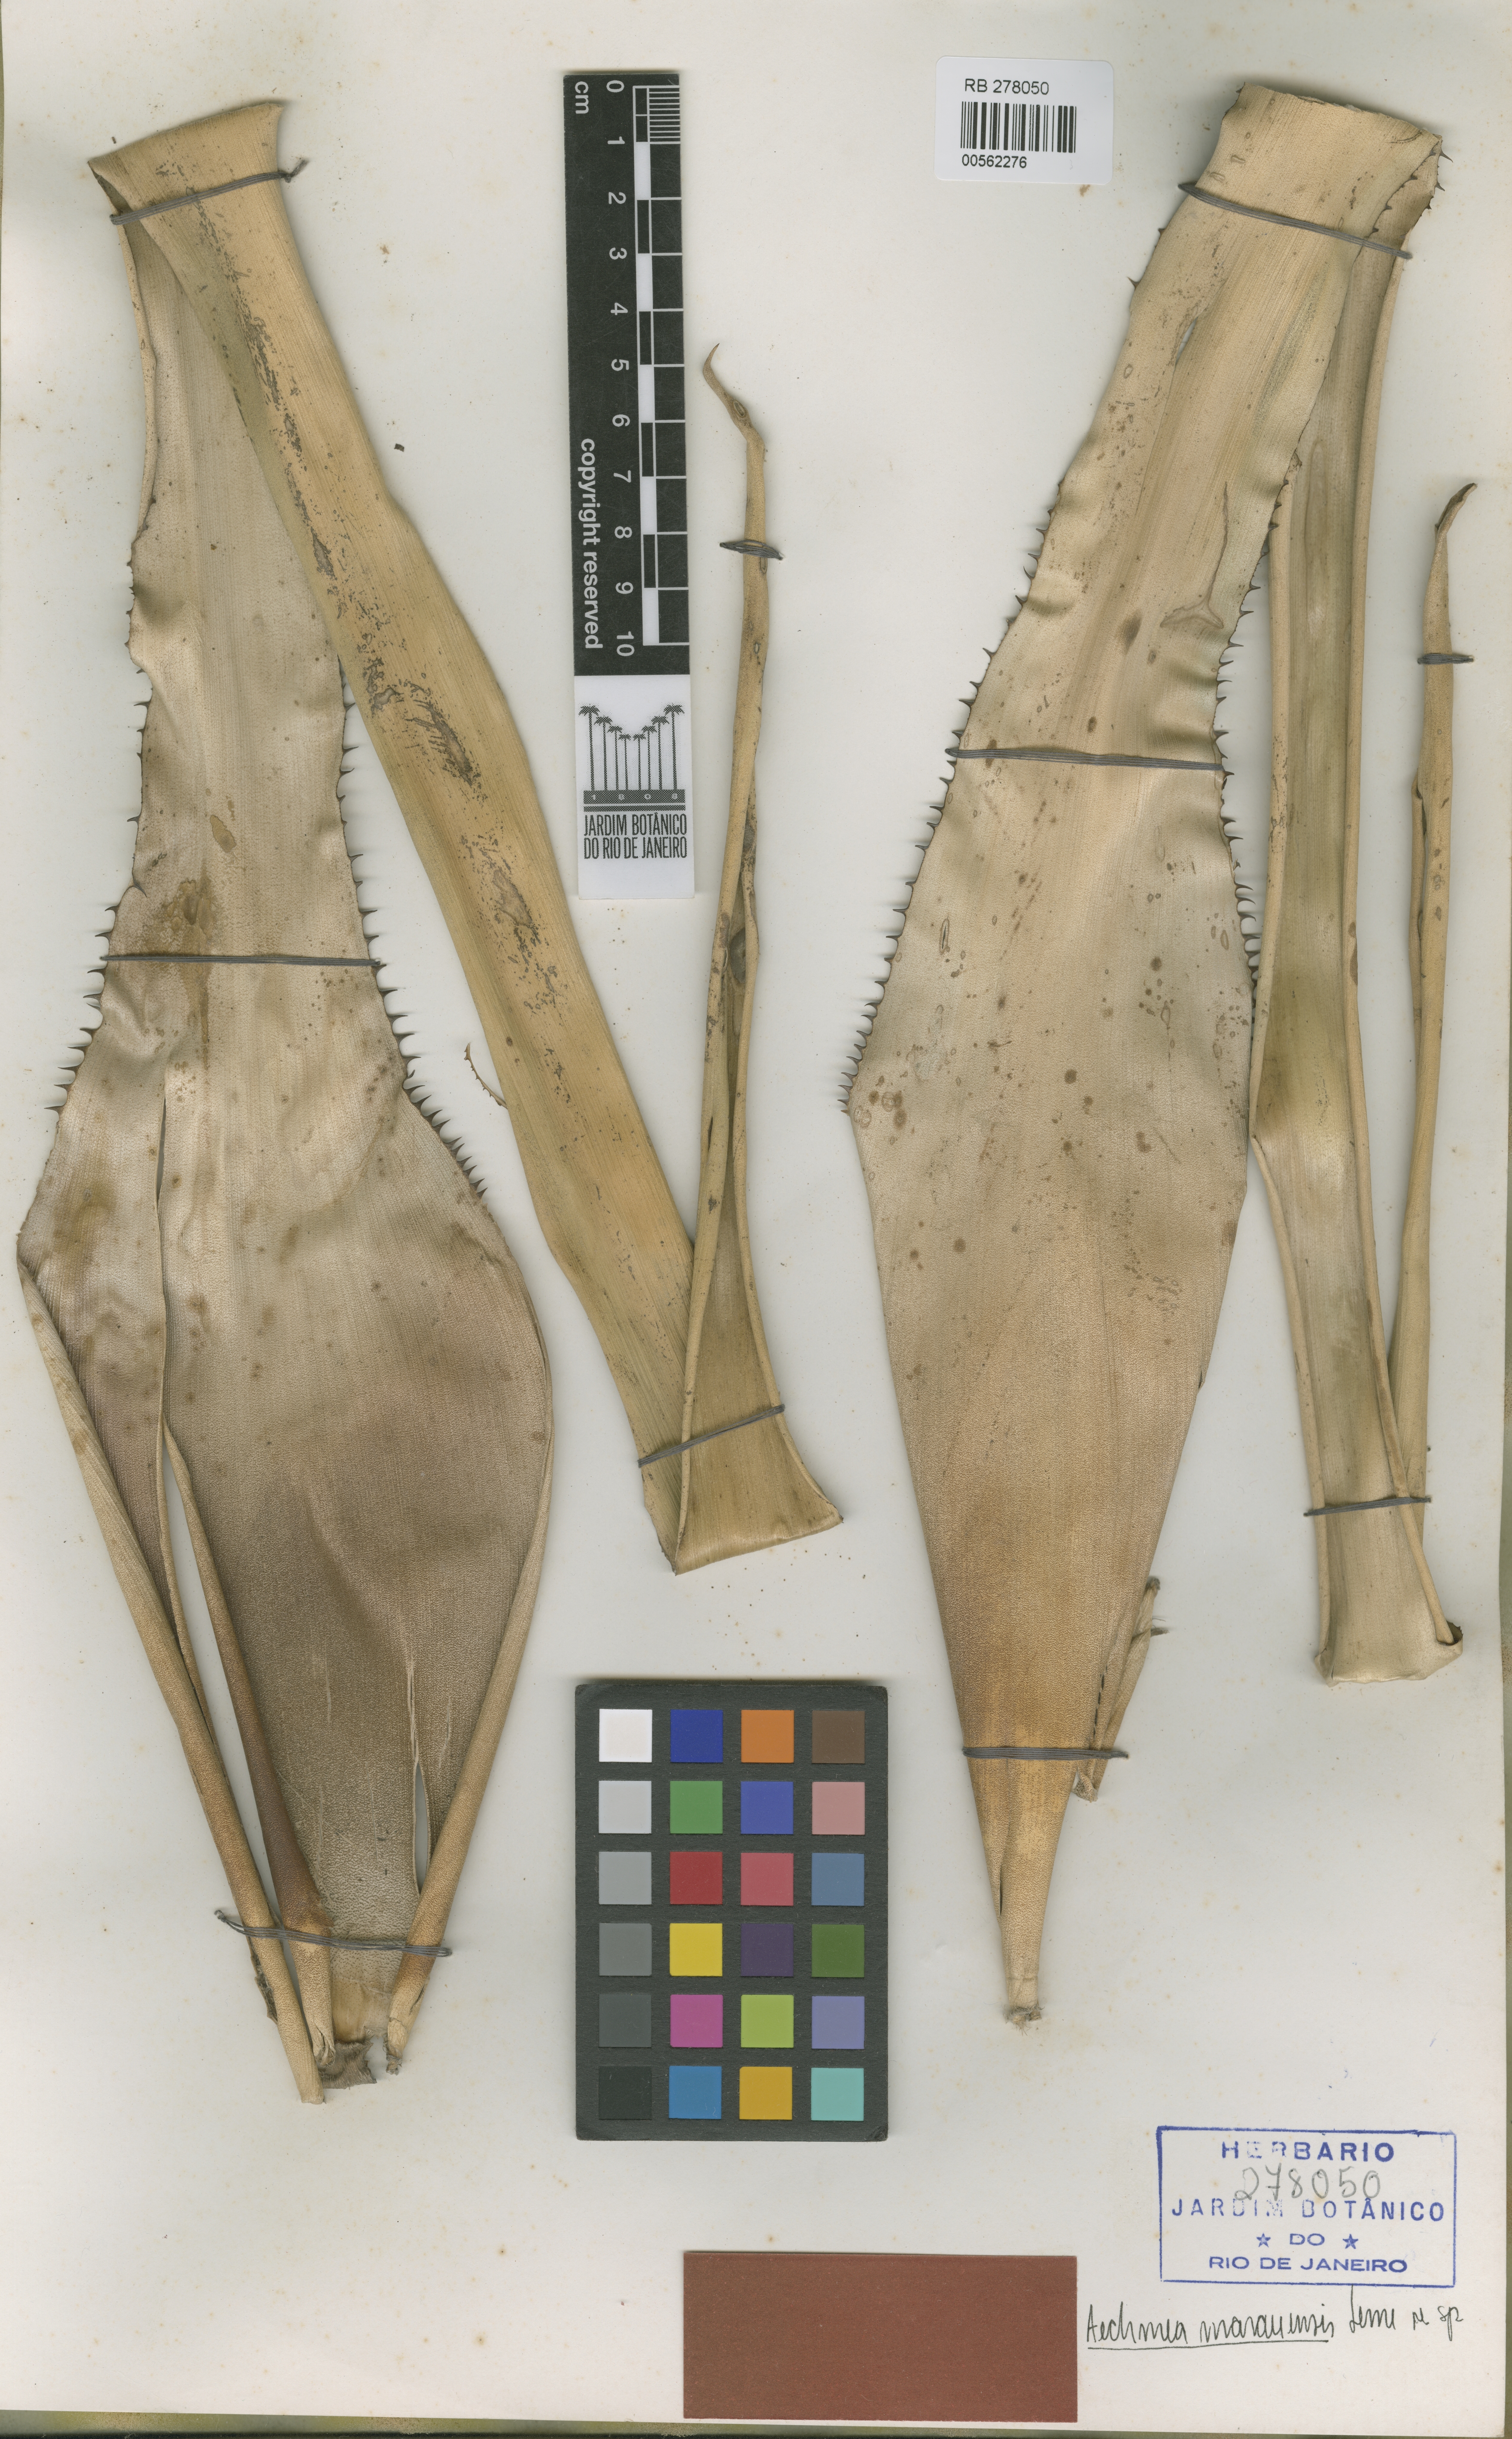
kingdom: Plantae
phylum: Tracheophyta
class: Liliopsida
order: Poales
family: Bromeliaceae
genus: Aechmea
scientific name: Aechmea marauensis
